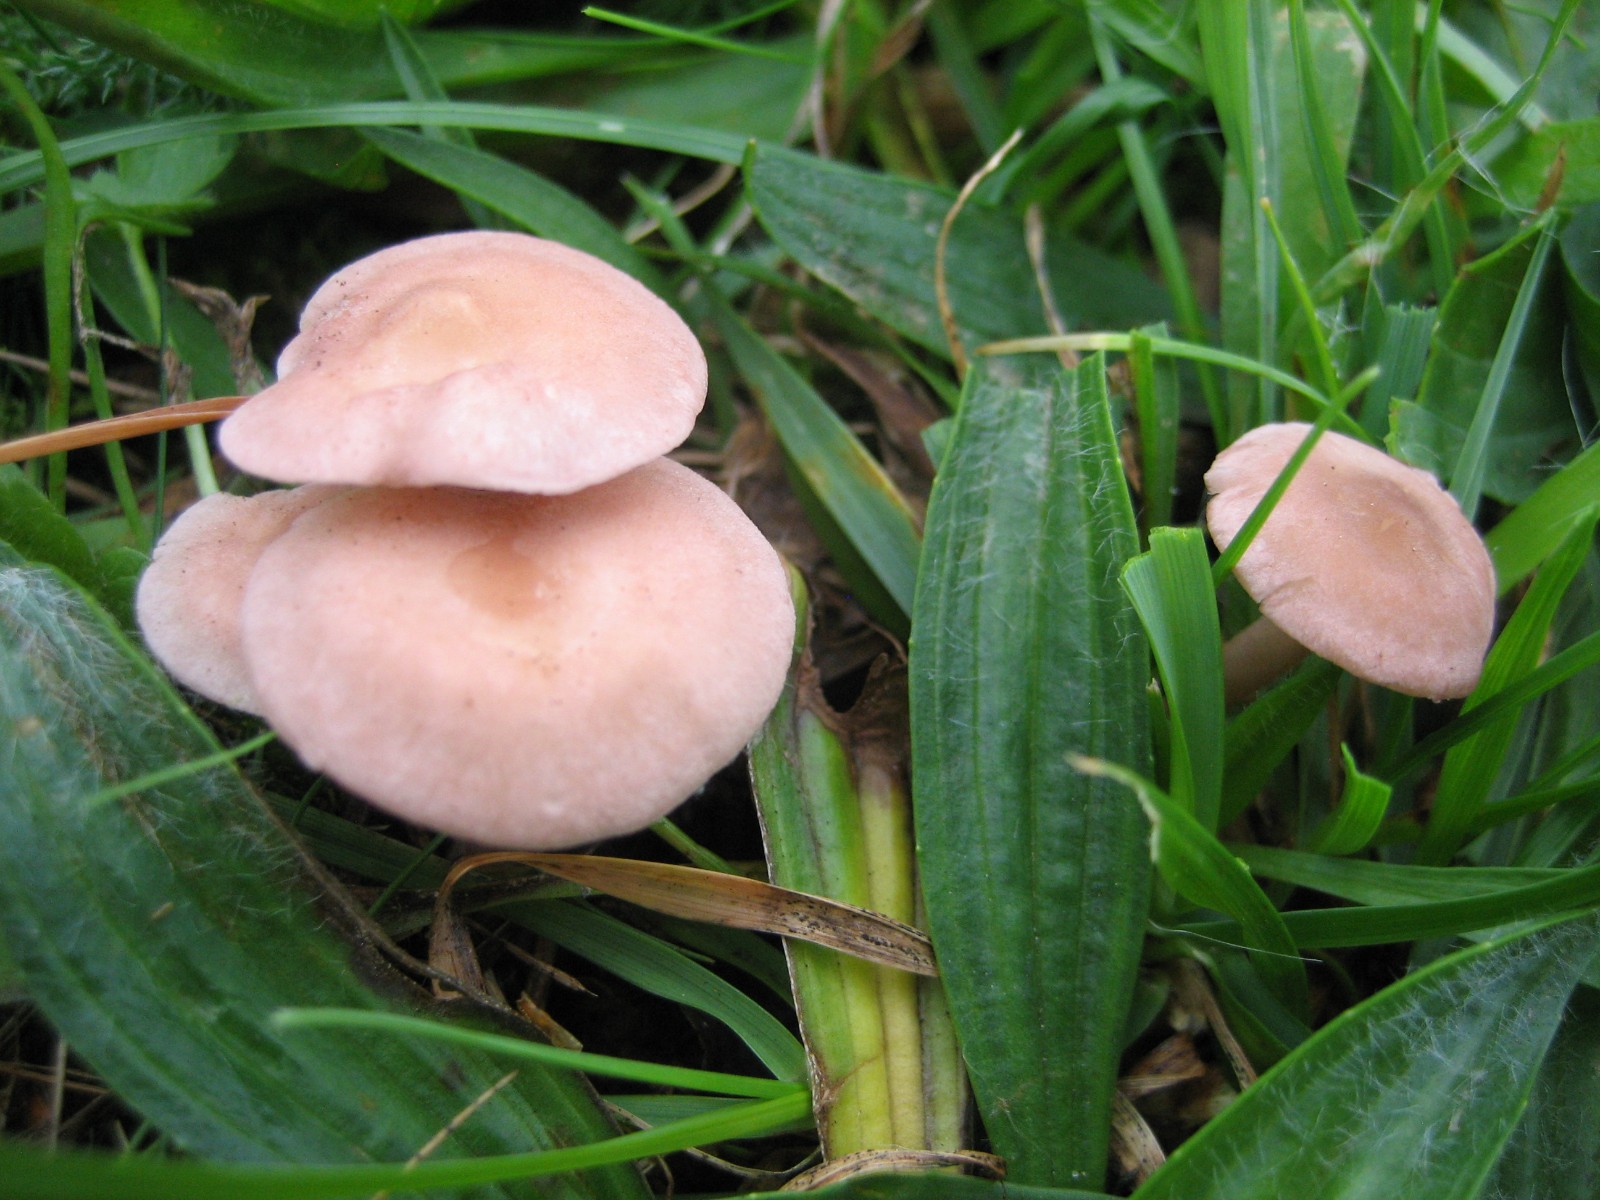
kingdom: Fungi
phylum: Basidiomycota
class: Agaricomycetes
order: Agaricales
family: Lyophyllaceae
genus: Calocybe
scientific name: Calocybe carnea
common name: rosa fagerhat
